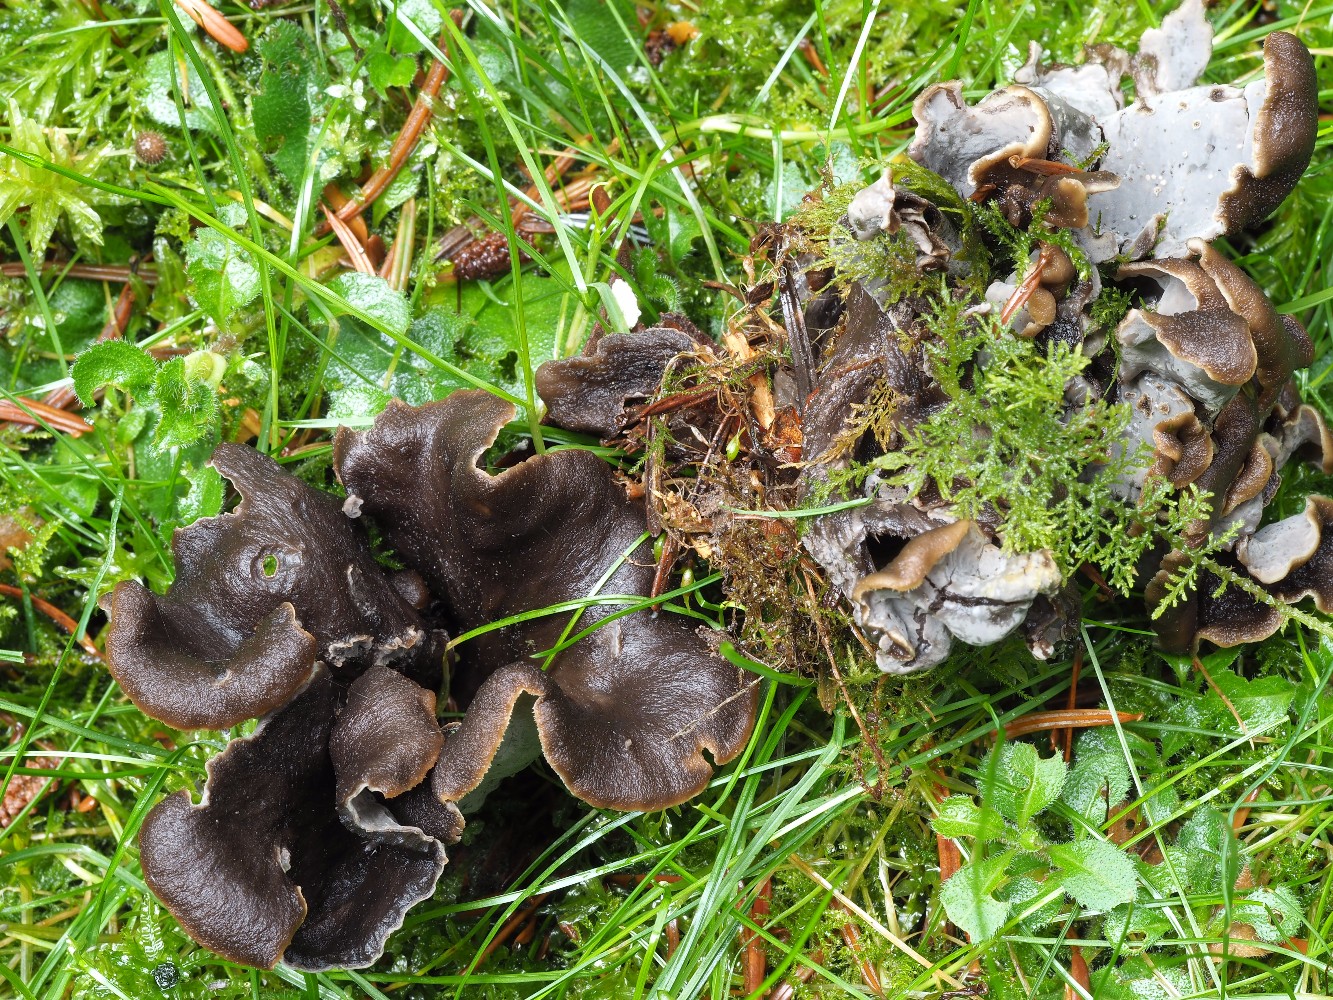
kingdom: Fungi
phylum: Basidiomycota
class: Agaricomycetes
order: Cantharellales
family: Hydnaceae
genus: Craterellus
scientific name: Craterellus cornucopioides
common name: trompetsvamp
